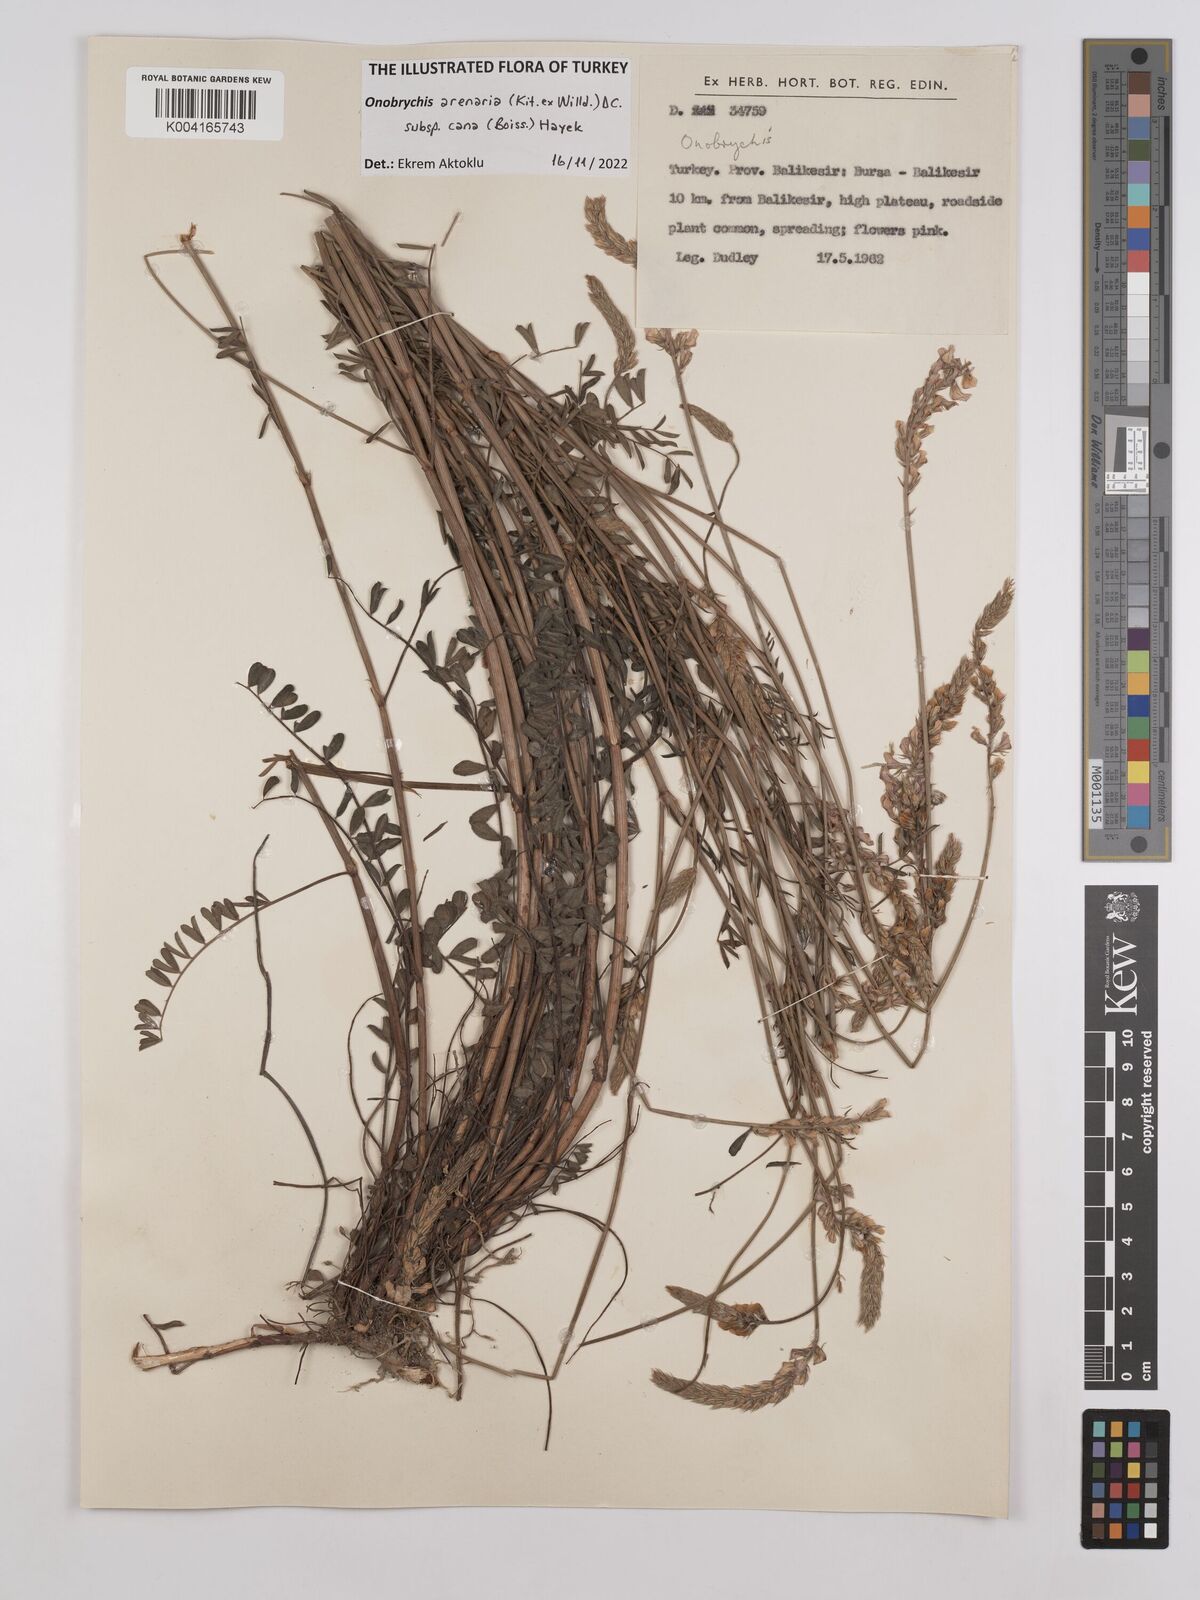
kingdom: Plantae
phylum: Tracheophyta
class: Magnoliopsida
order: Fabales
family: Fabaceae
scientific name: Fabaceae
